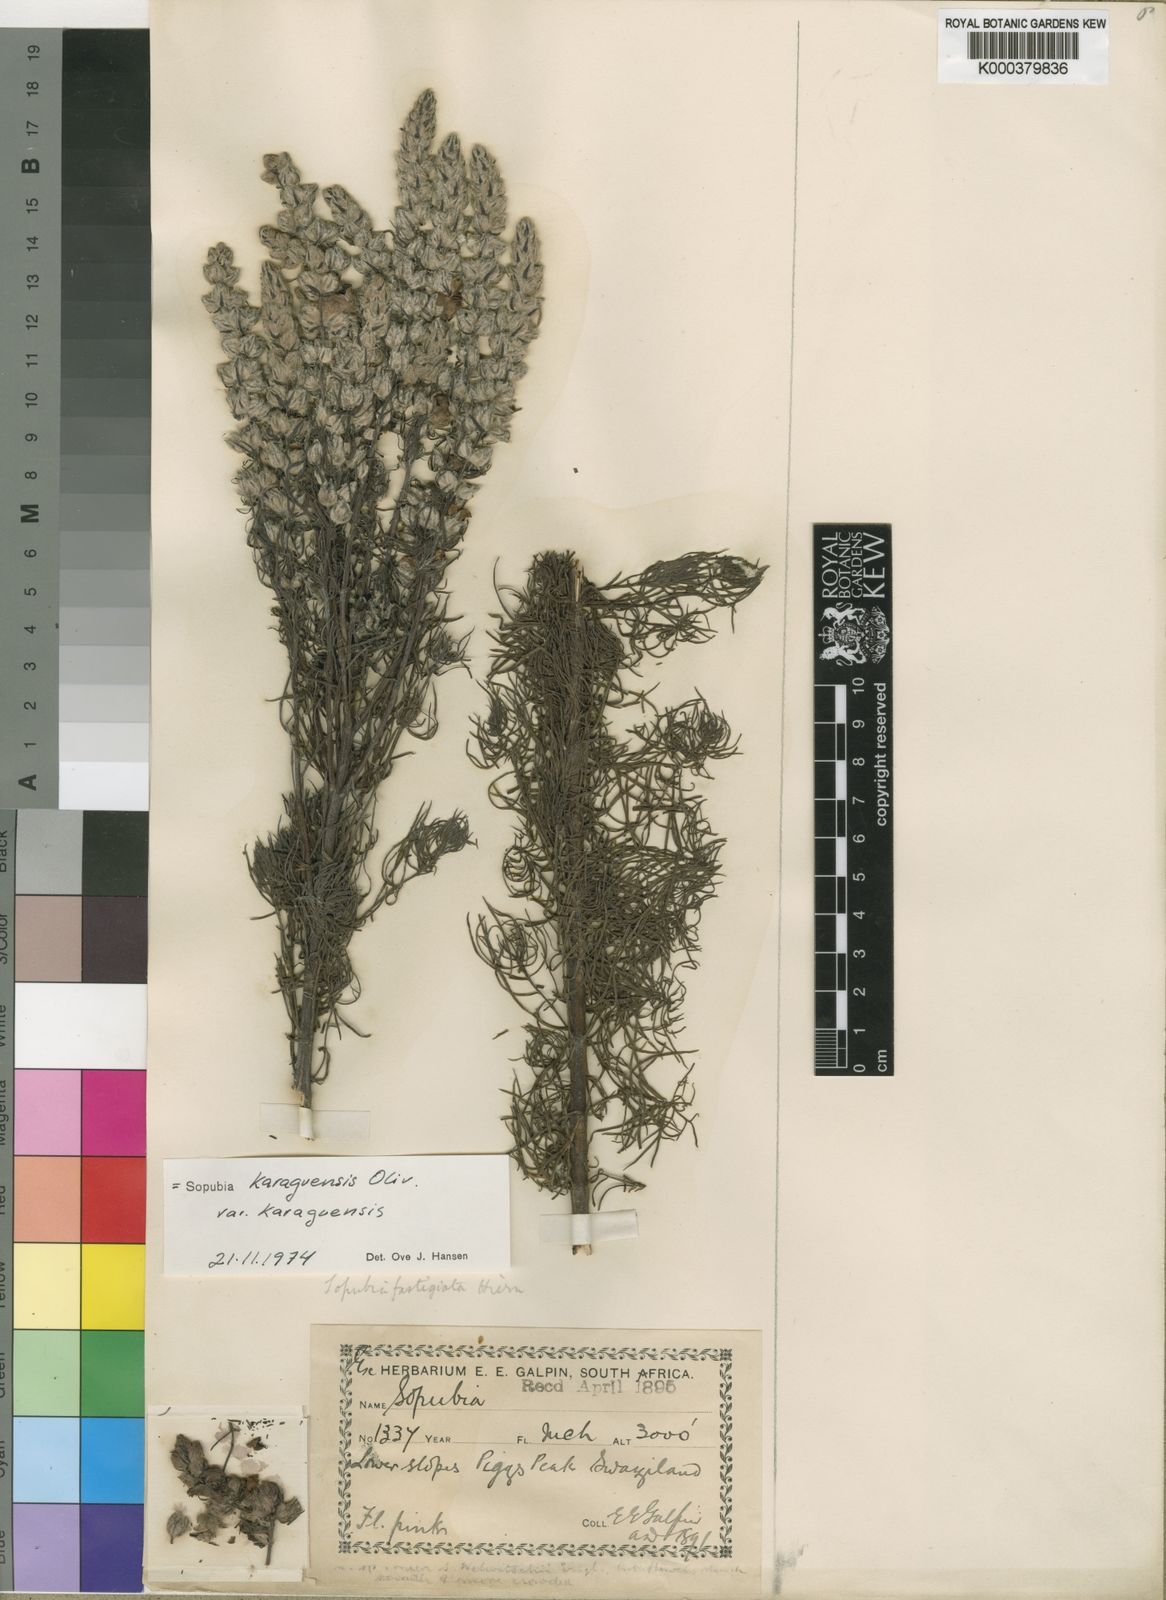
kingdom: Plantae
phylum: Tracheophyta
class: Magnoliopsida
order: Lamiales
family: Orobanchaceae
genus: Sopubia
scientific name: Sopubia karaguensis
